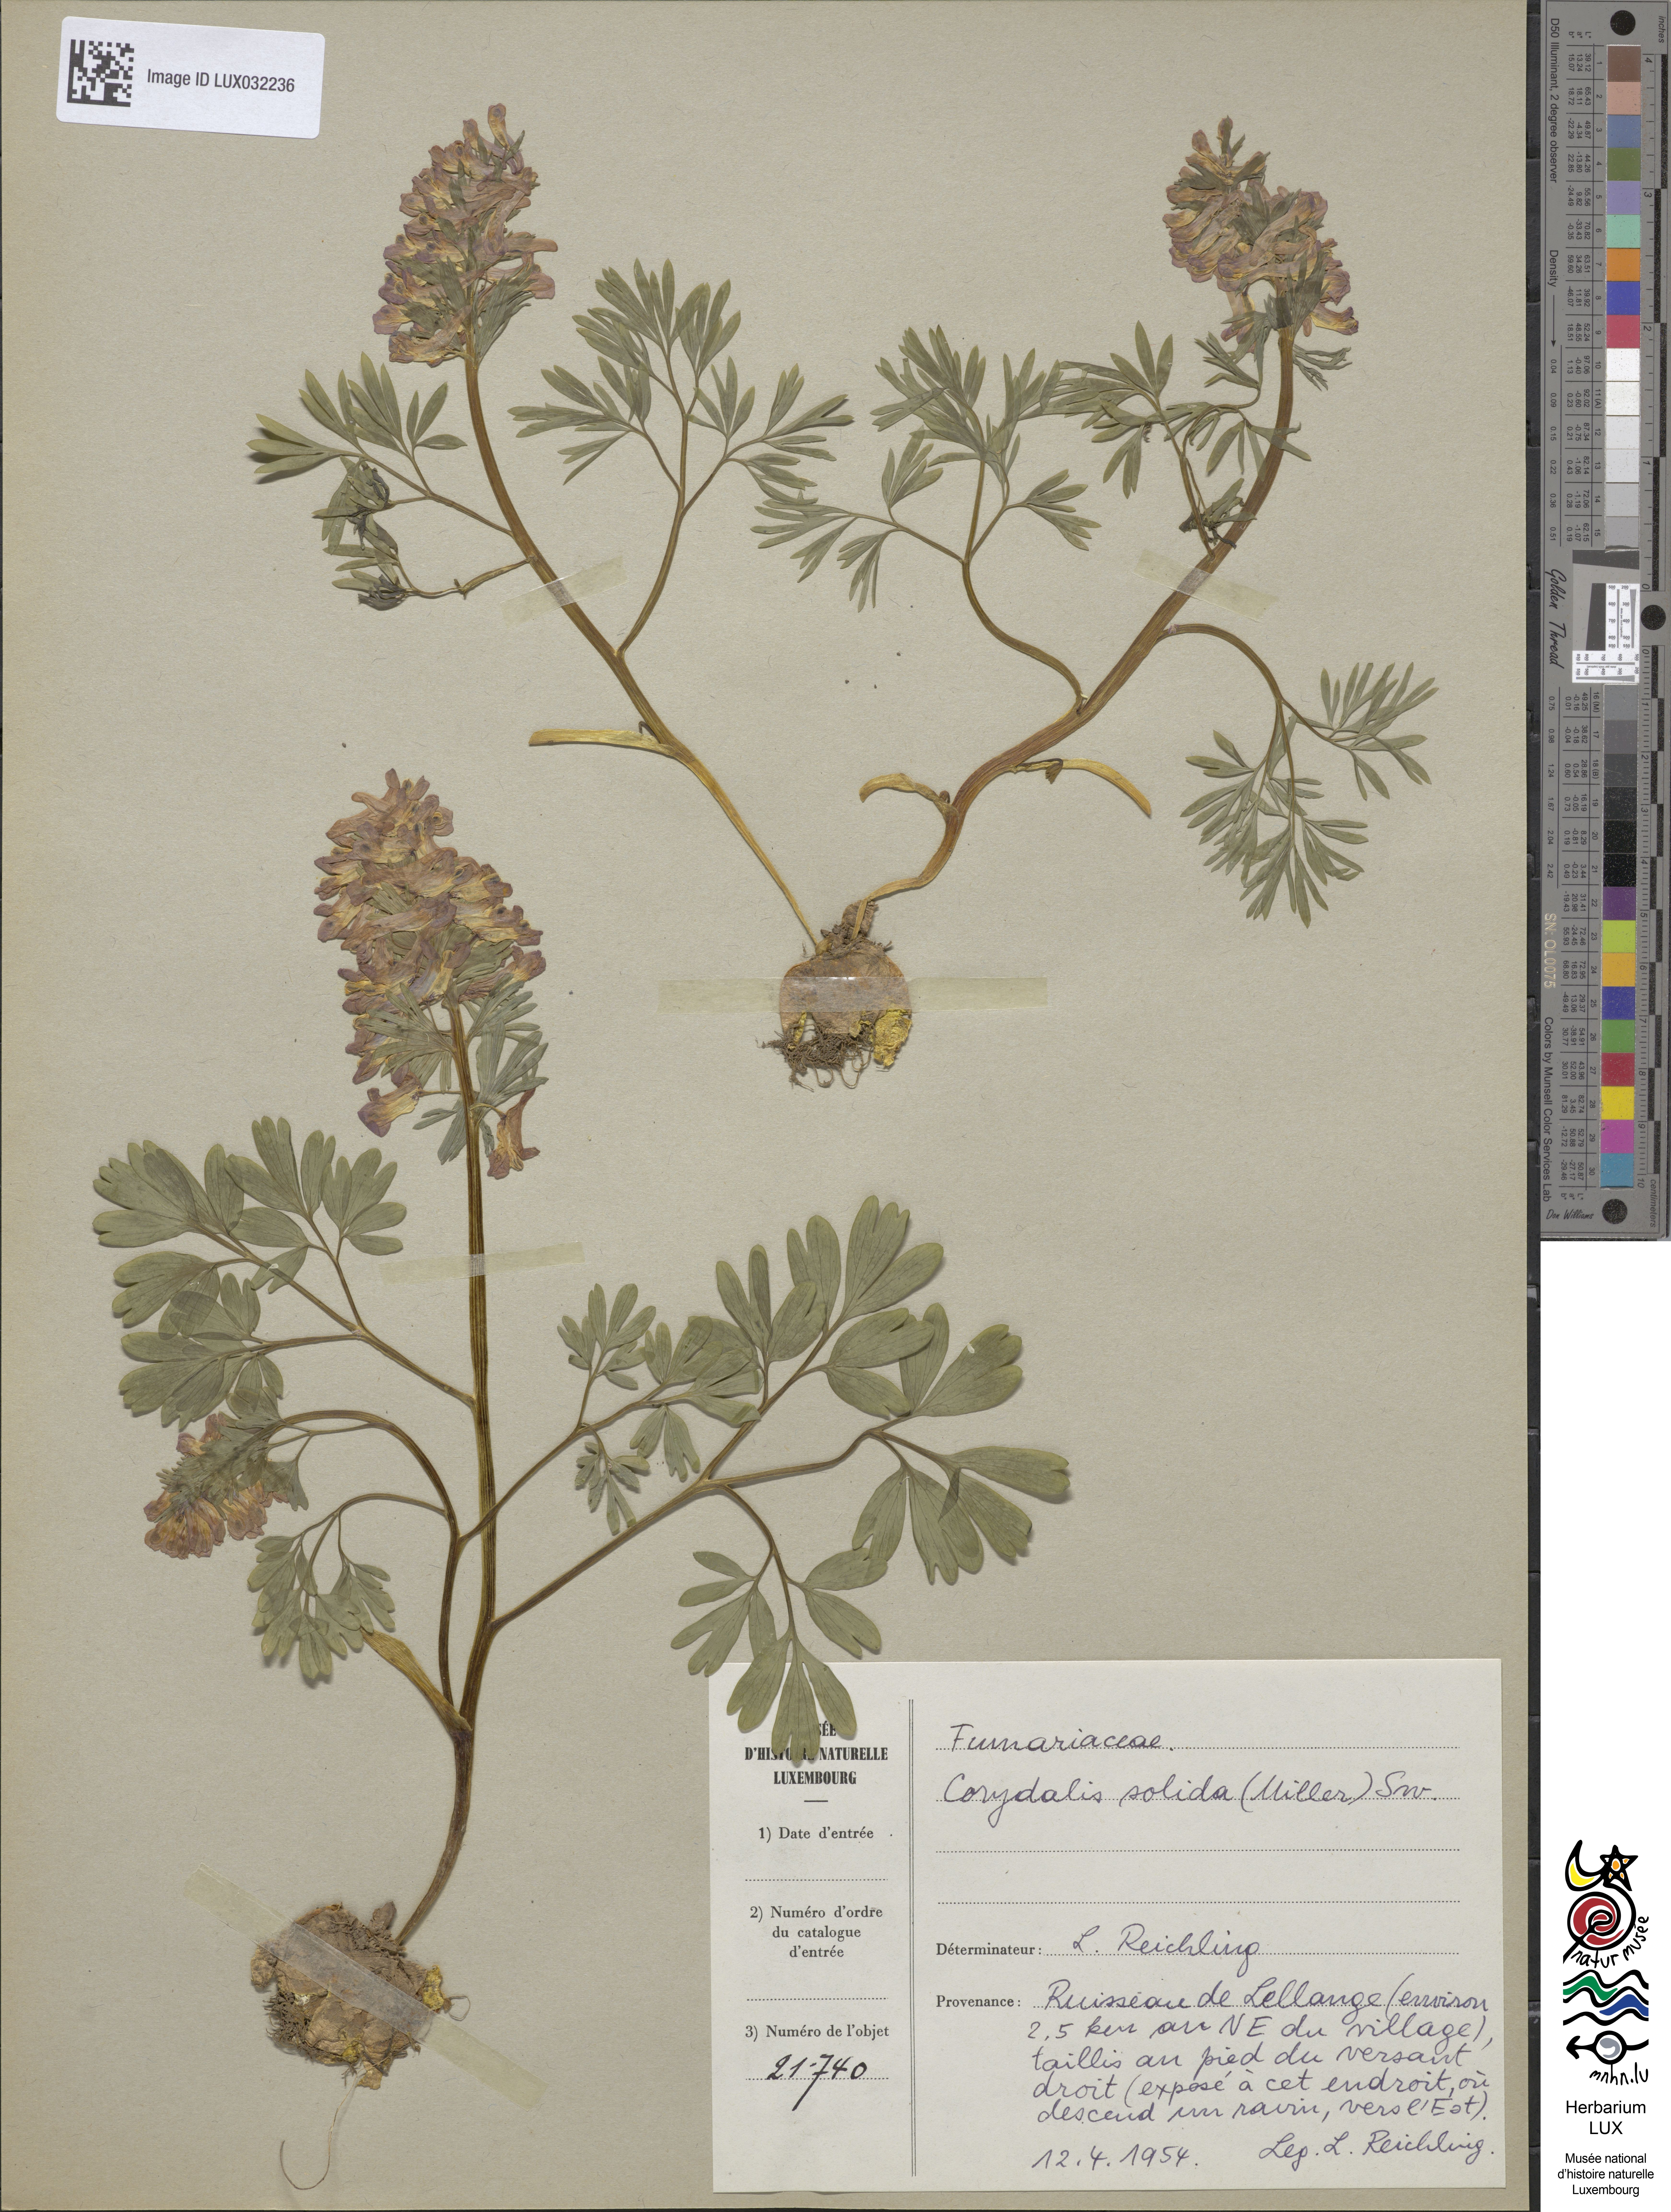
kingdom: Plantae
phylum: Tracheophyta
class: Magnoliopsida
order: Ranunculales
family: Papaveraceae
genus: Corydalis
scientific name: Corydalis solida
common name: Bird-in-a-bush
